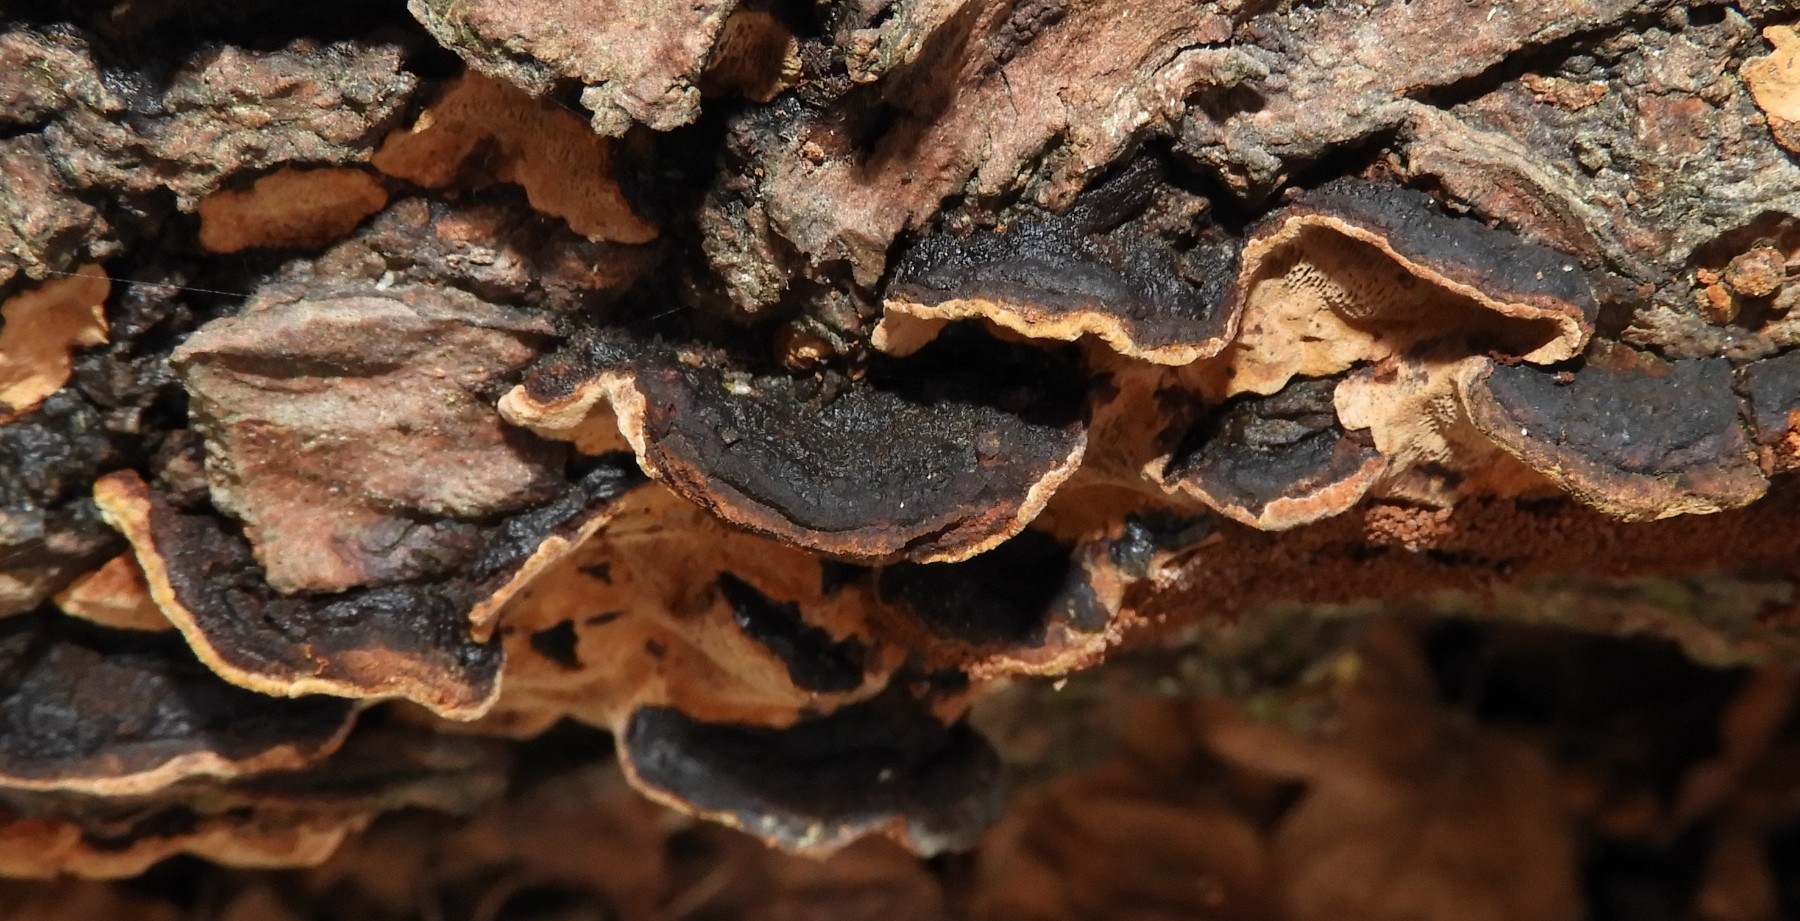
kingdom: Fungi
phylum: Basidiomycota
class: Agaricomycetes
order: Hymenochaetales
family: Hymenochaetaceae
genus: Phellinopsis
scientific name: Phellinopsis conchata
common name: pile-ildporesvamp
